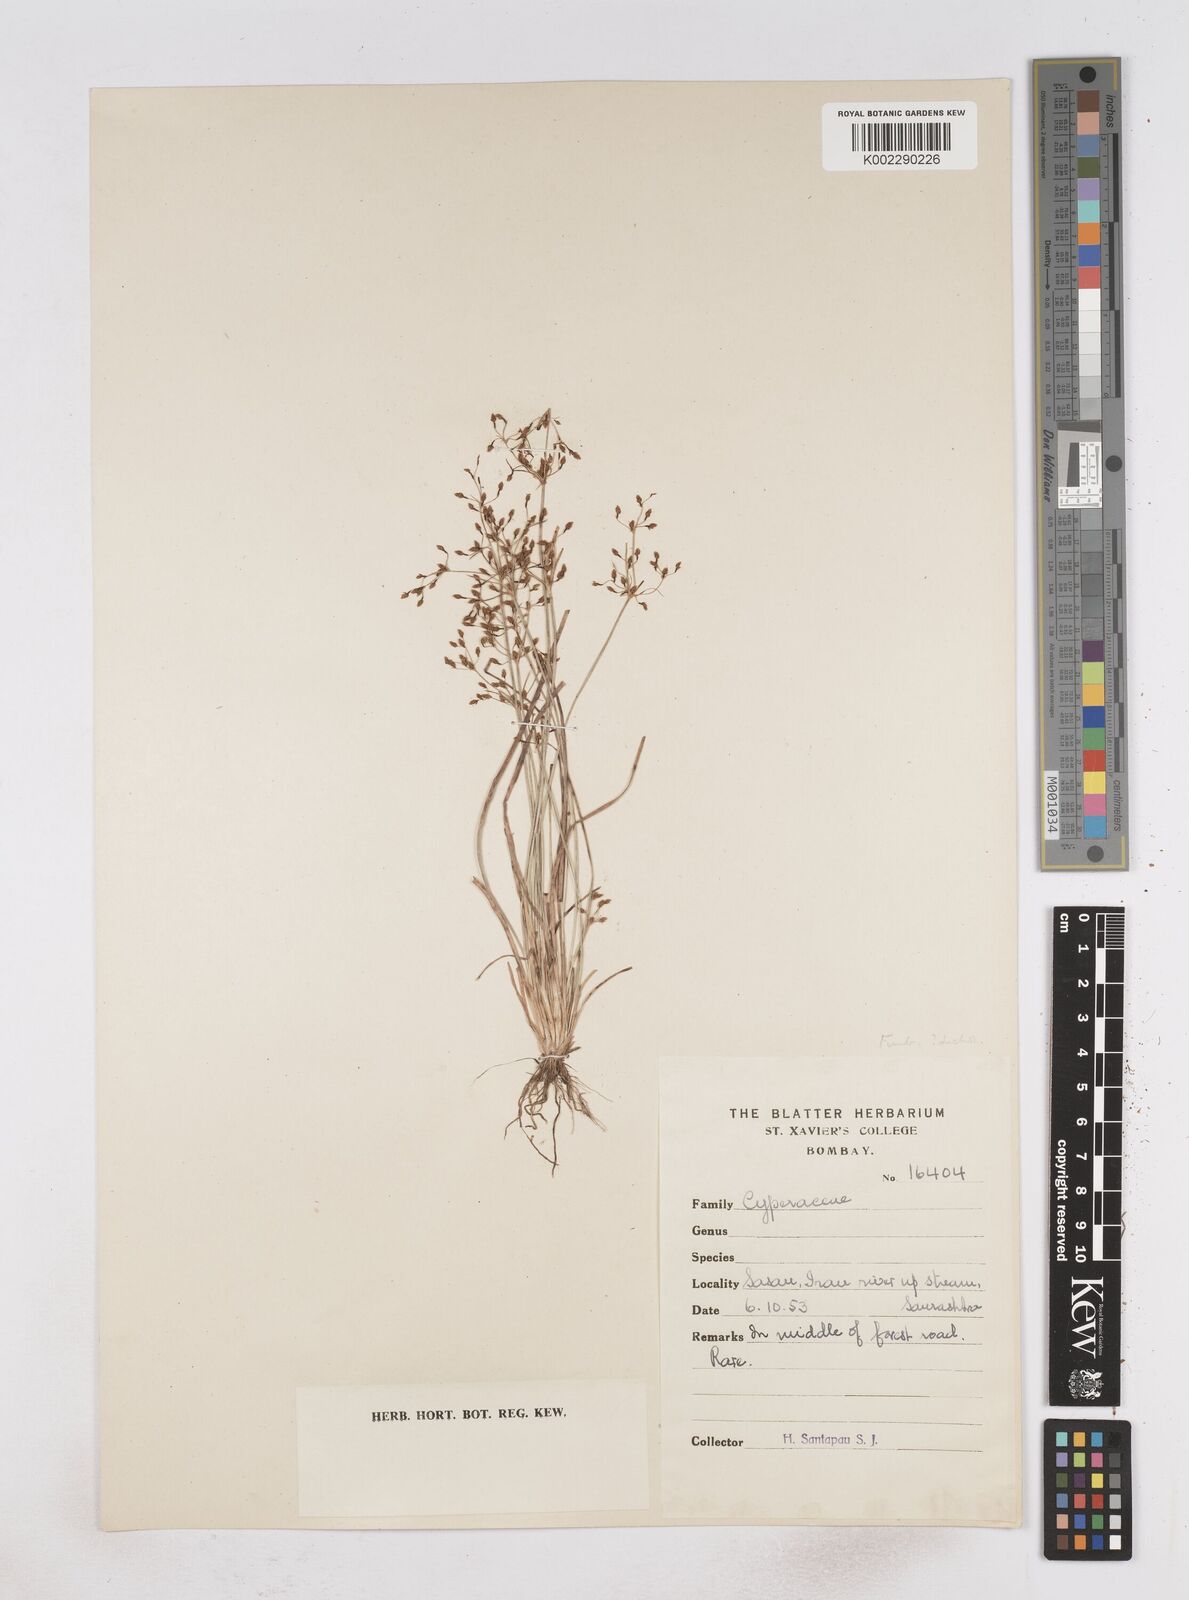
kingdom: Plantae
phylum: Tracheophyta
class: Liliopsida
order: Poales
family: Cyperaceae
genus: Fimbristylis
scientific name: Fimbristylis
